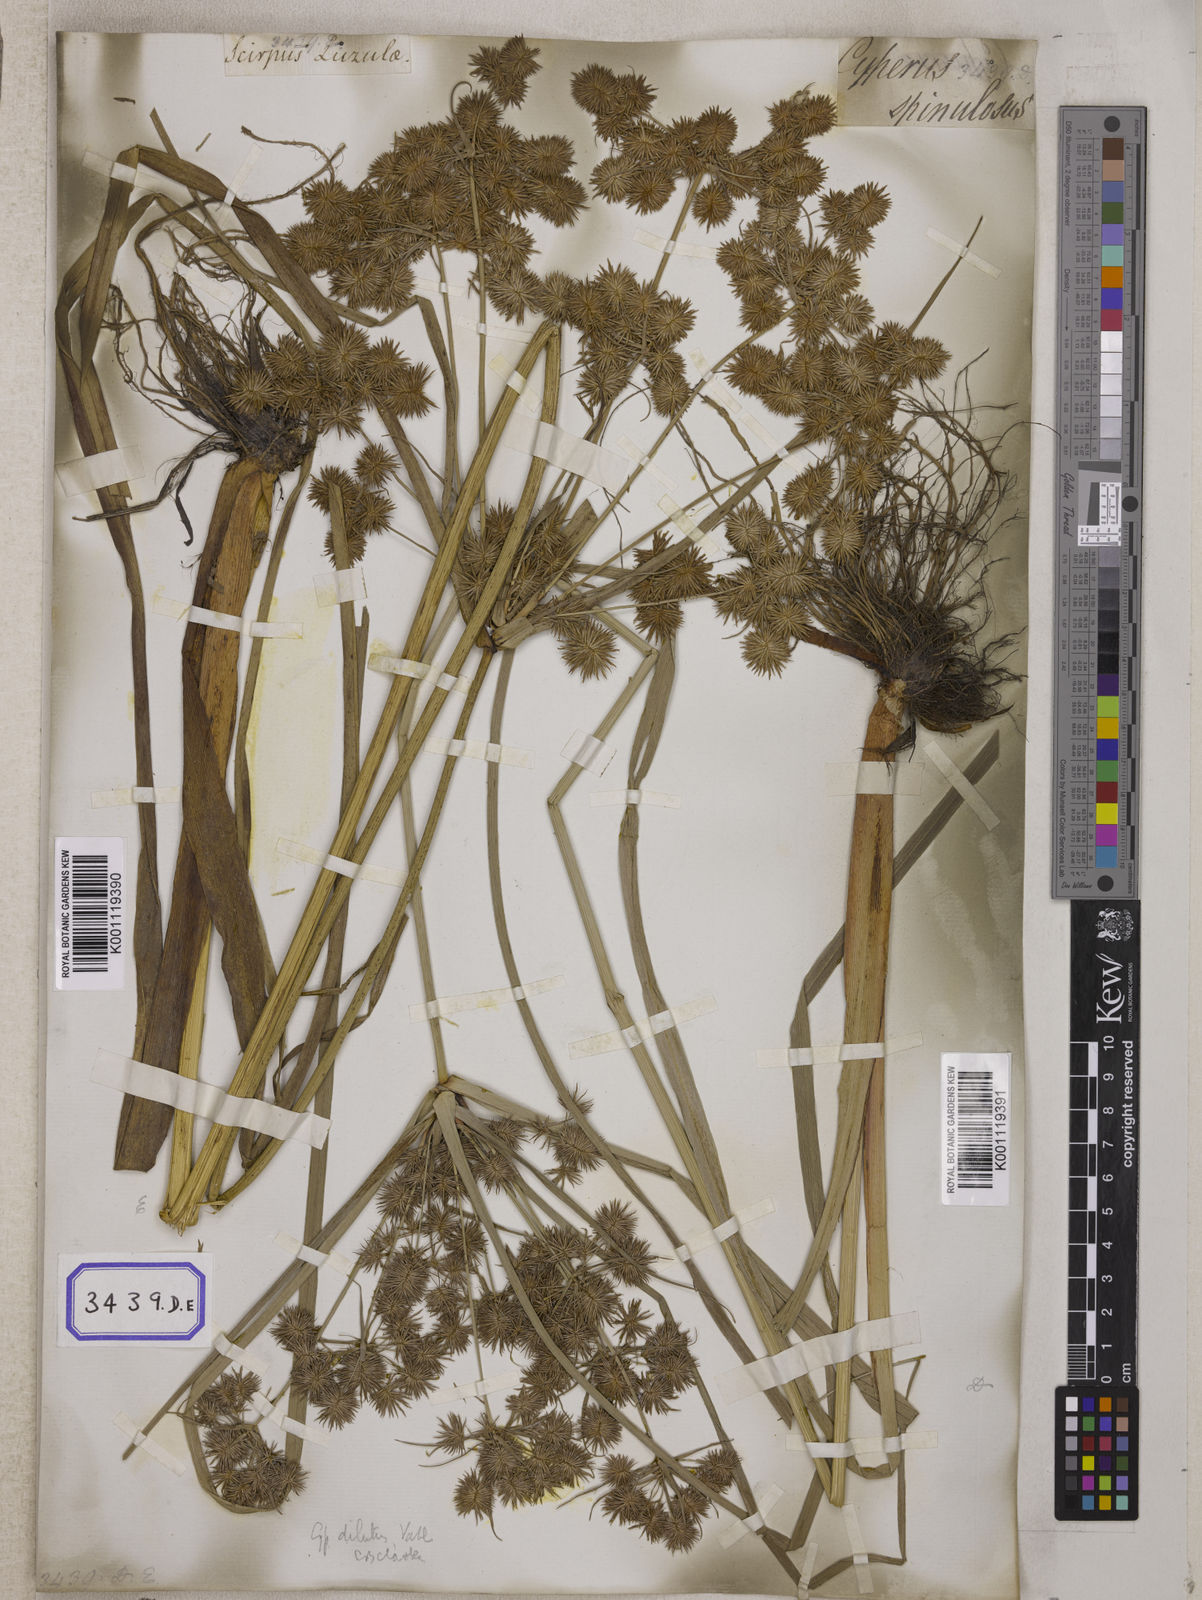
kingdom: Plantae
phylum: Tracheophyta
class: Liliopsida
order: Poales
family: Cyperaceae
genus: Mariscus
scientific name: Mariscus
